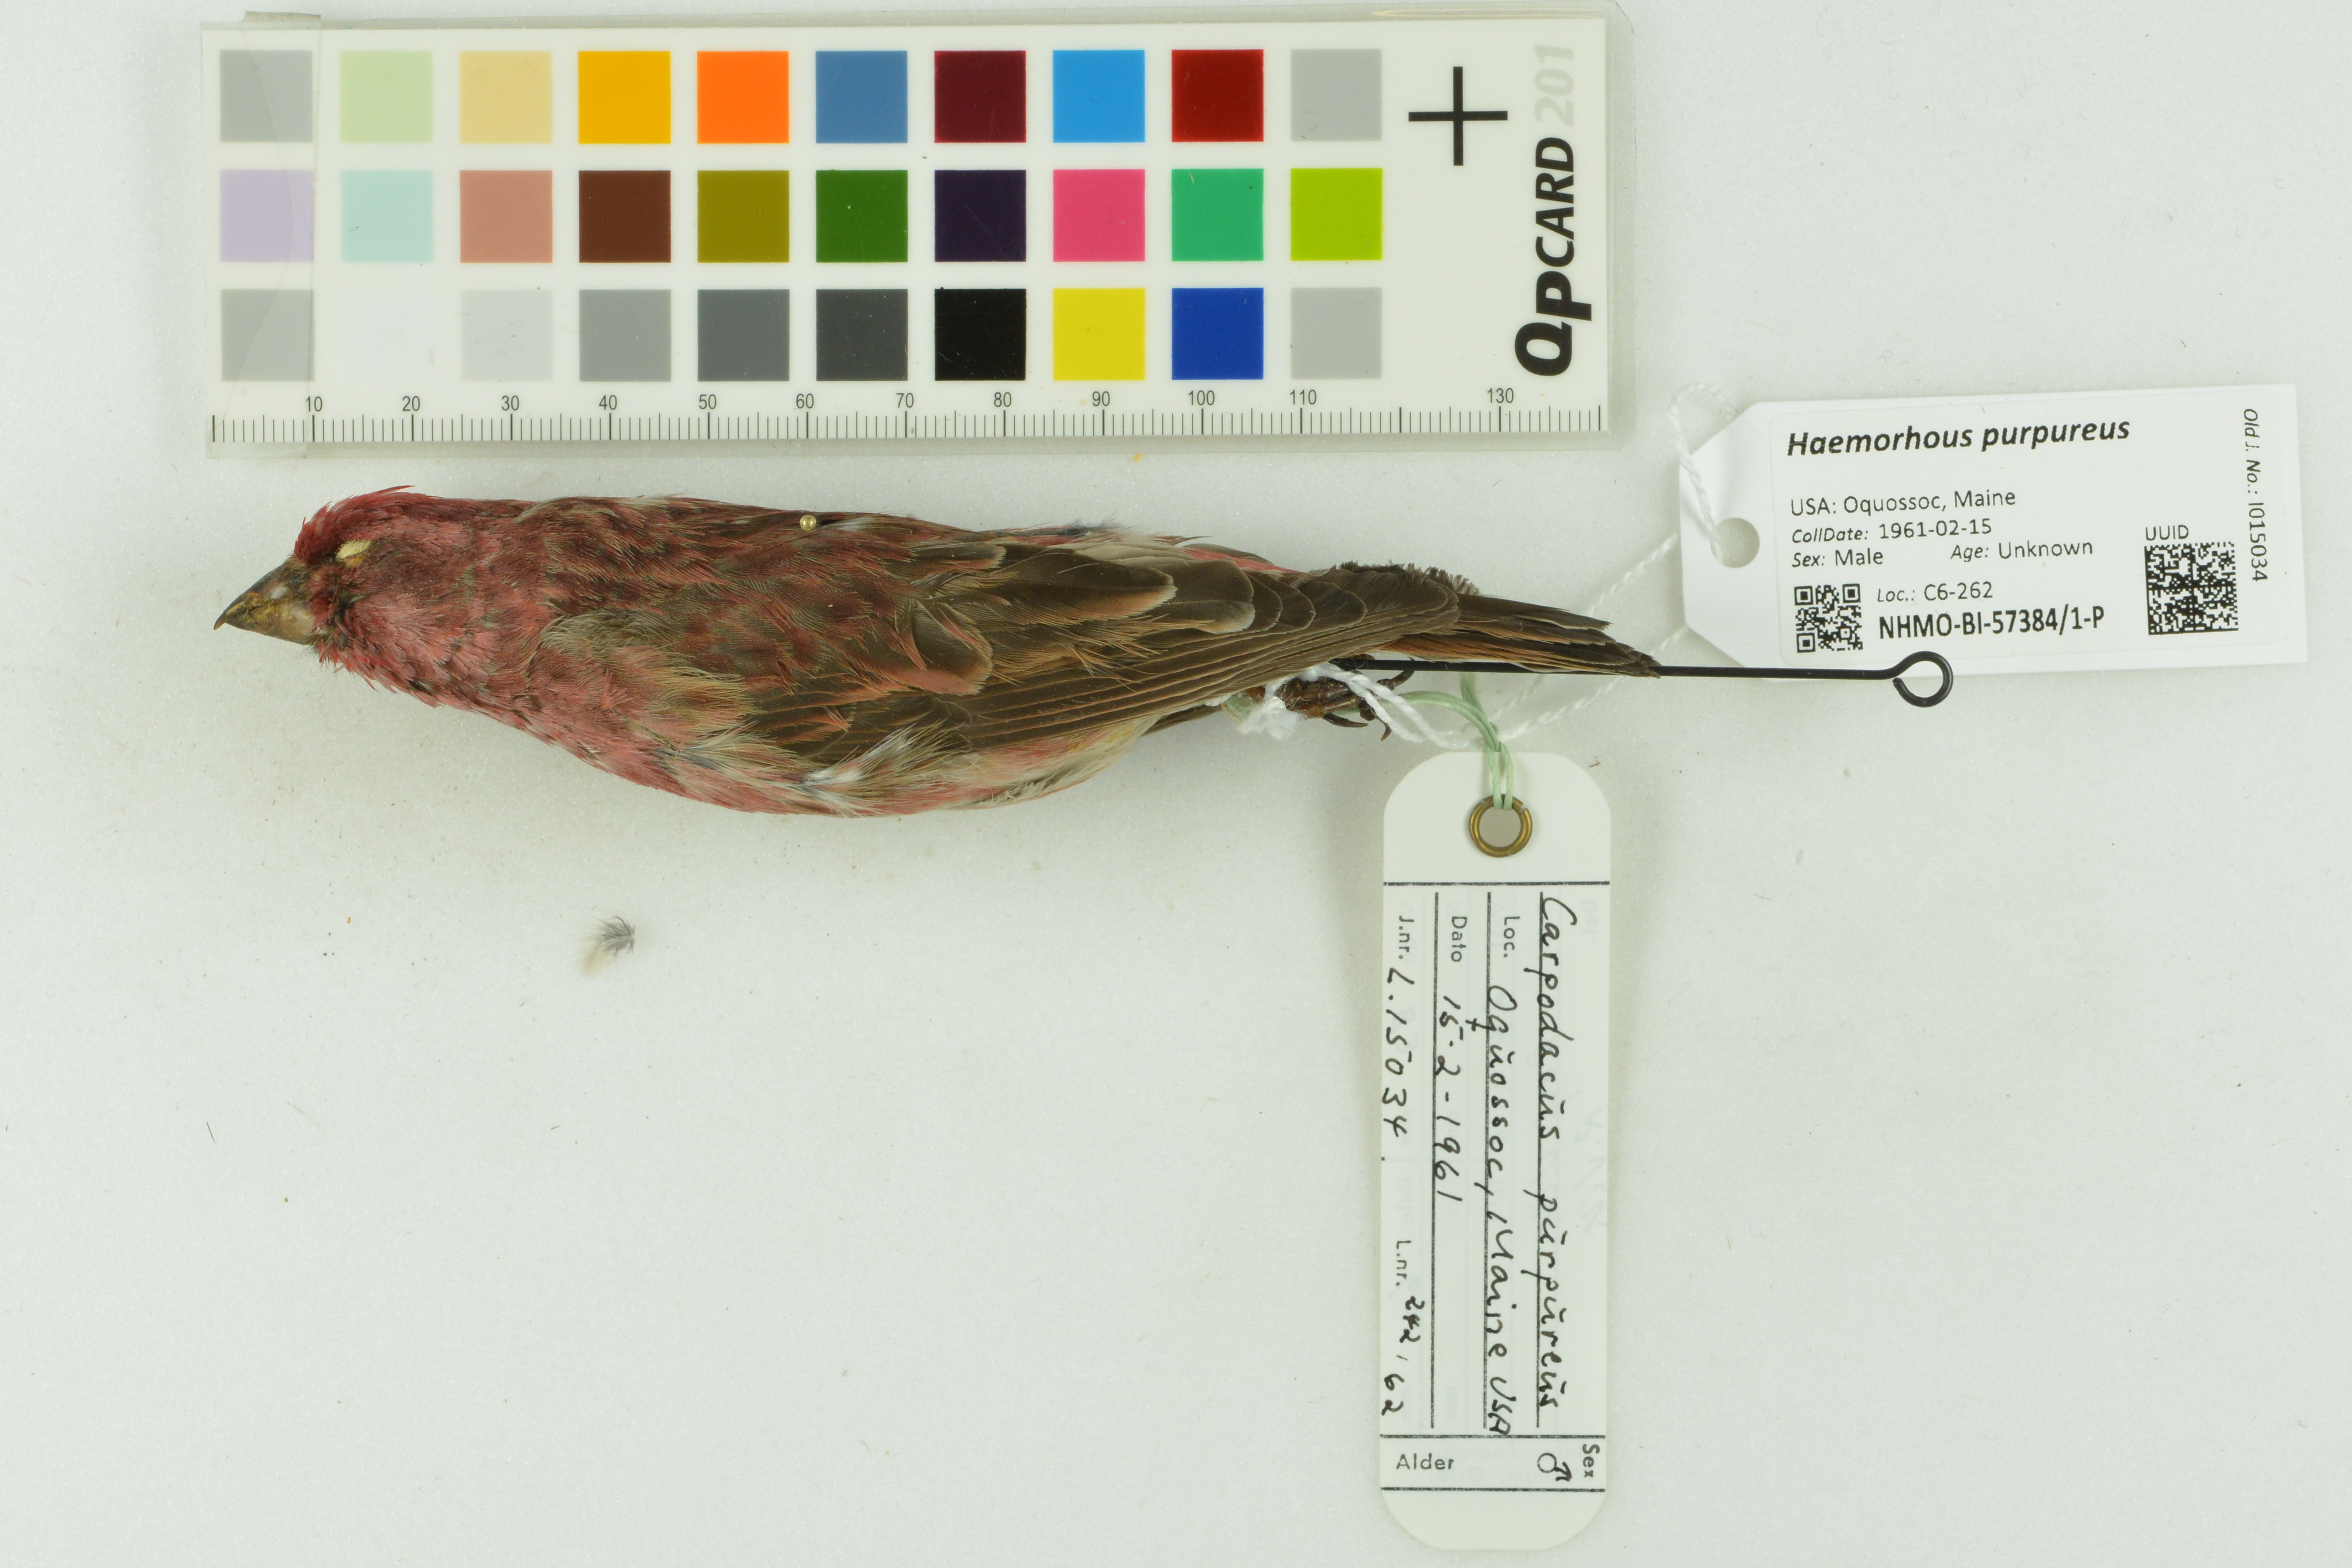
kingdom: Animalia
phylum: Chordata
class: Aves
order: Passeriformes
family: Fringillidae
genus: Haemorhous
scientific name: Haemorhous purpureus
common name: Purple finch
